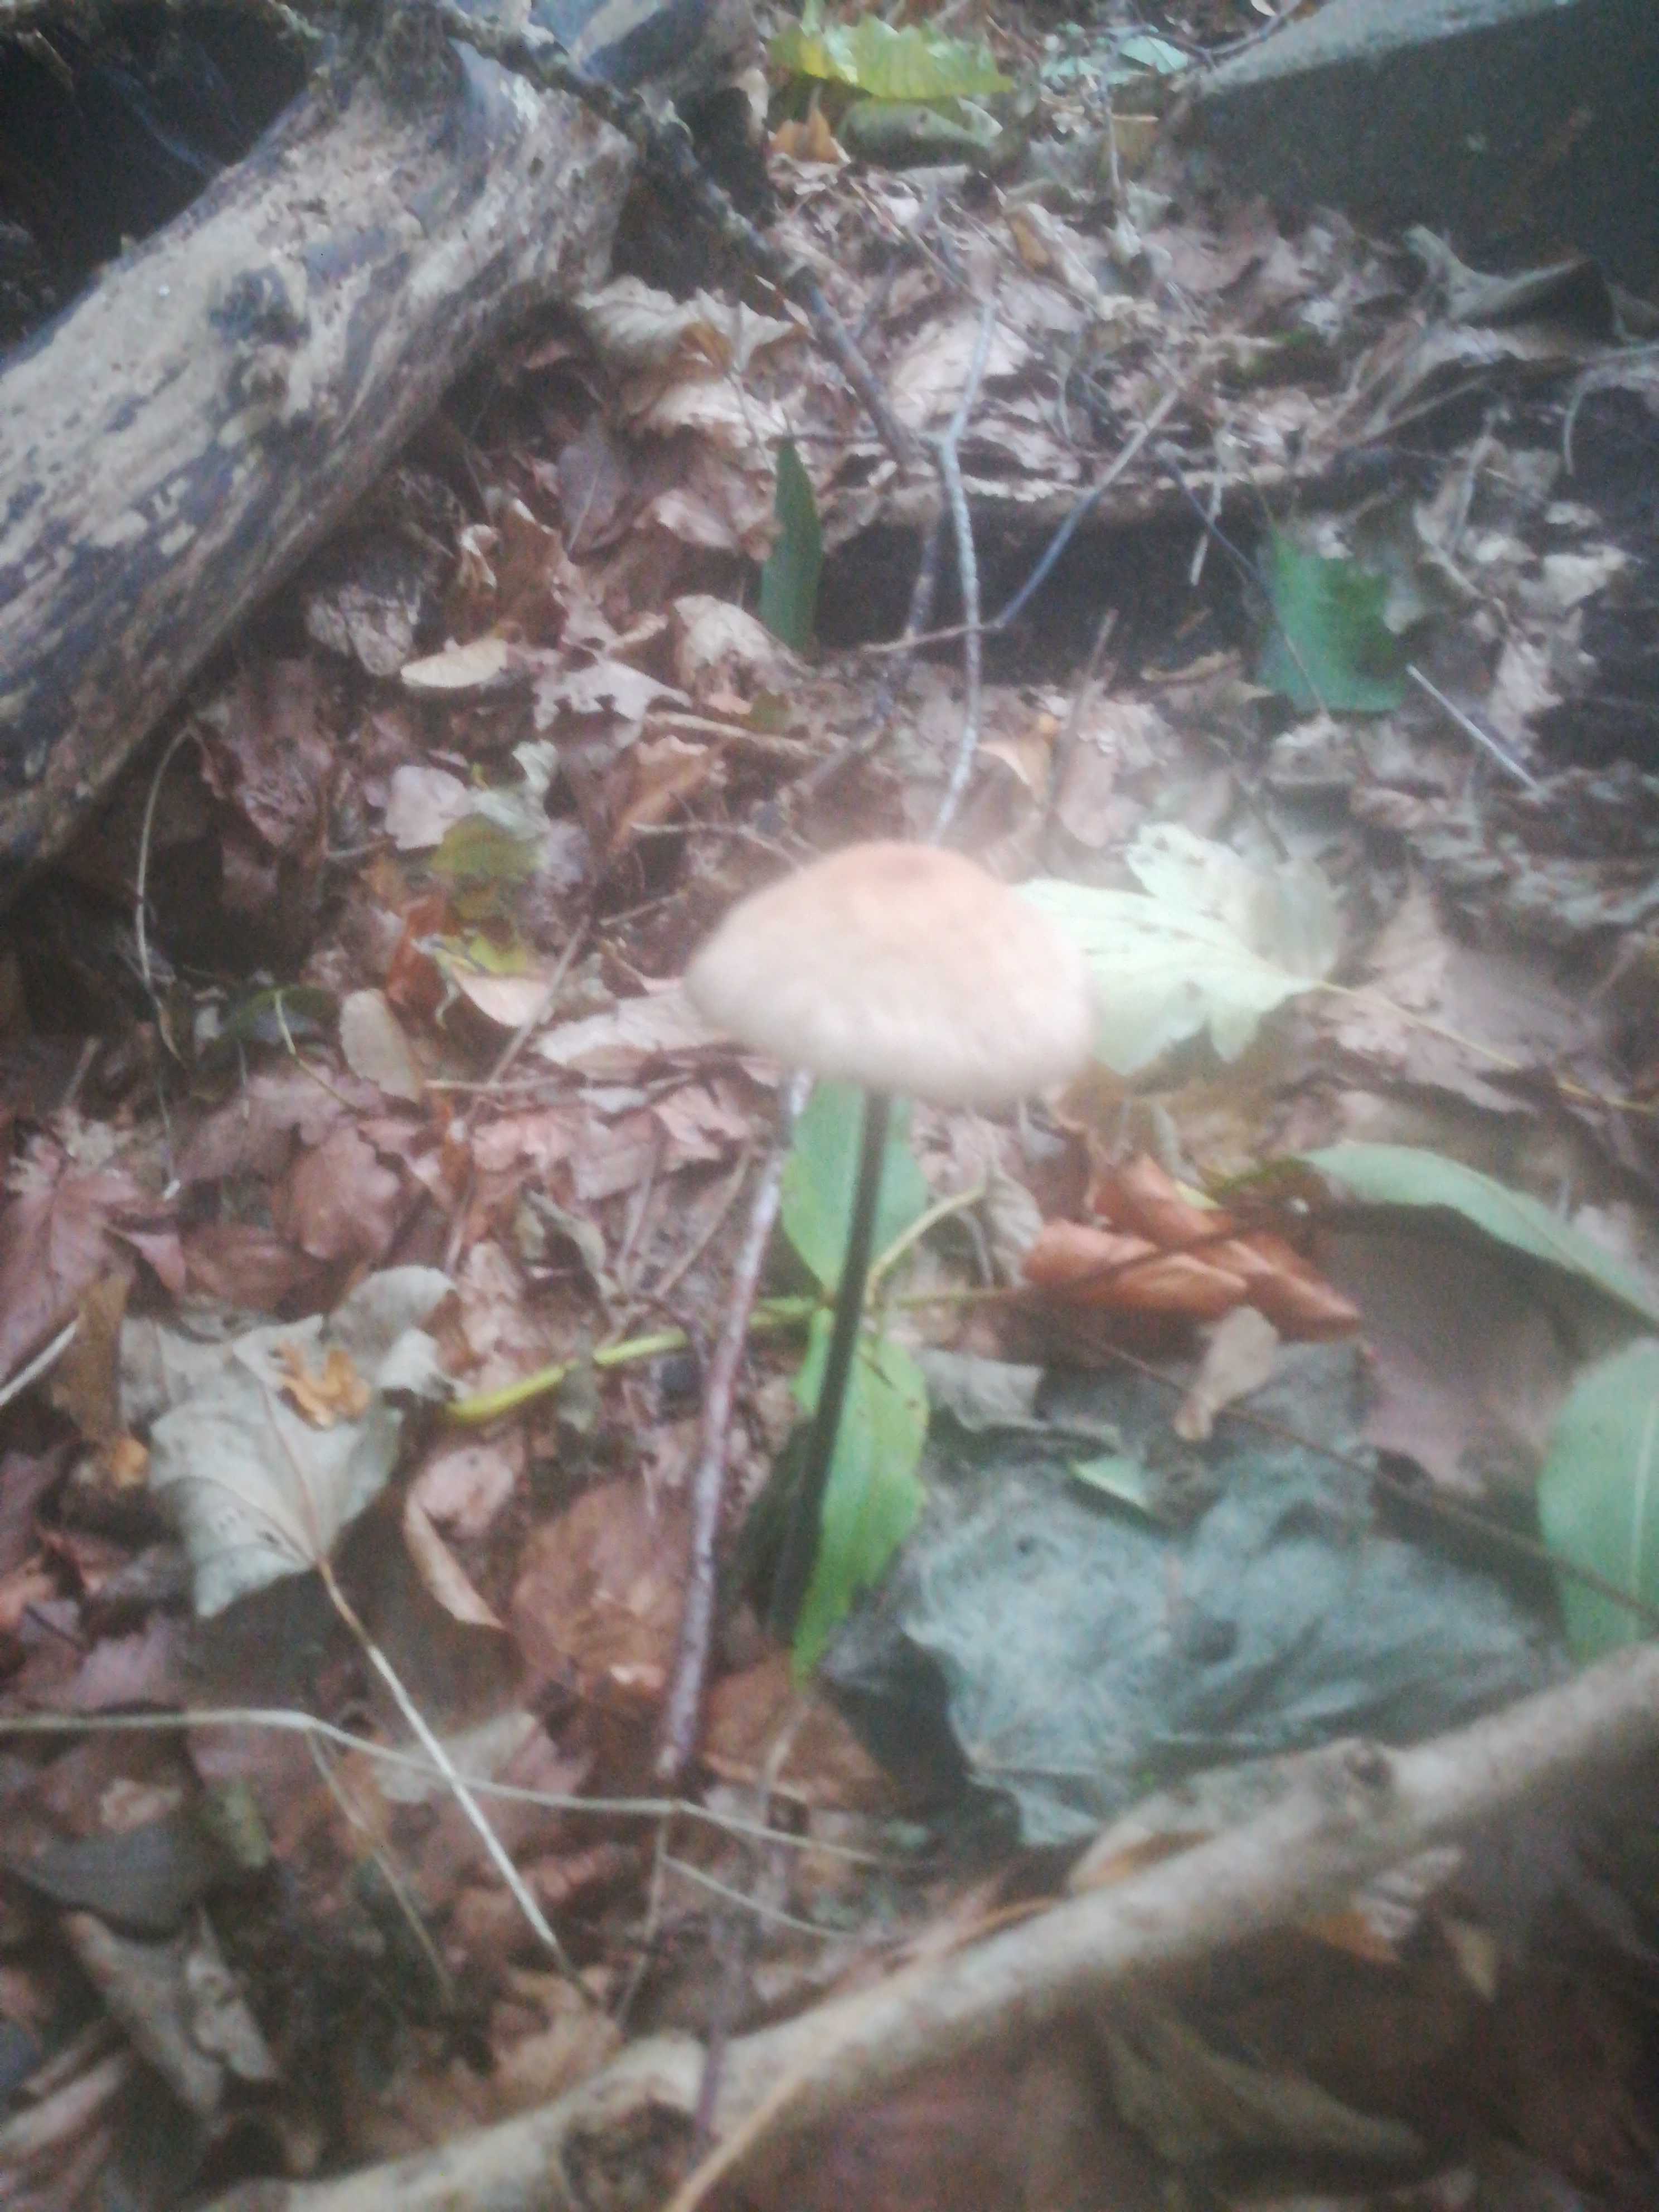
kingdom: Fungi
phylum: Basidiomycota
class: Agaricomycetes
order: Agaricales
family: Omphalotaceae
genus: Mycetinis
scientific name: Mycetinis alliaceus
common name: stor løghat
